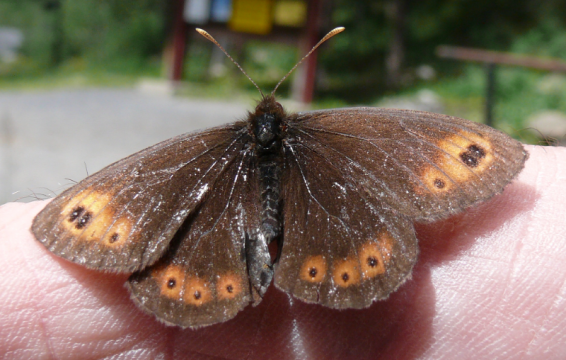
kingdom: Animalia
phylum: Arthropoda
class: Insecta
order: Lepidoptera
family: Nymphalidae
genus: Erebia
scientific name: Erebia epipsodea
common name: Common Alpine
